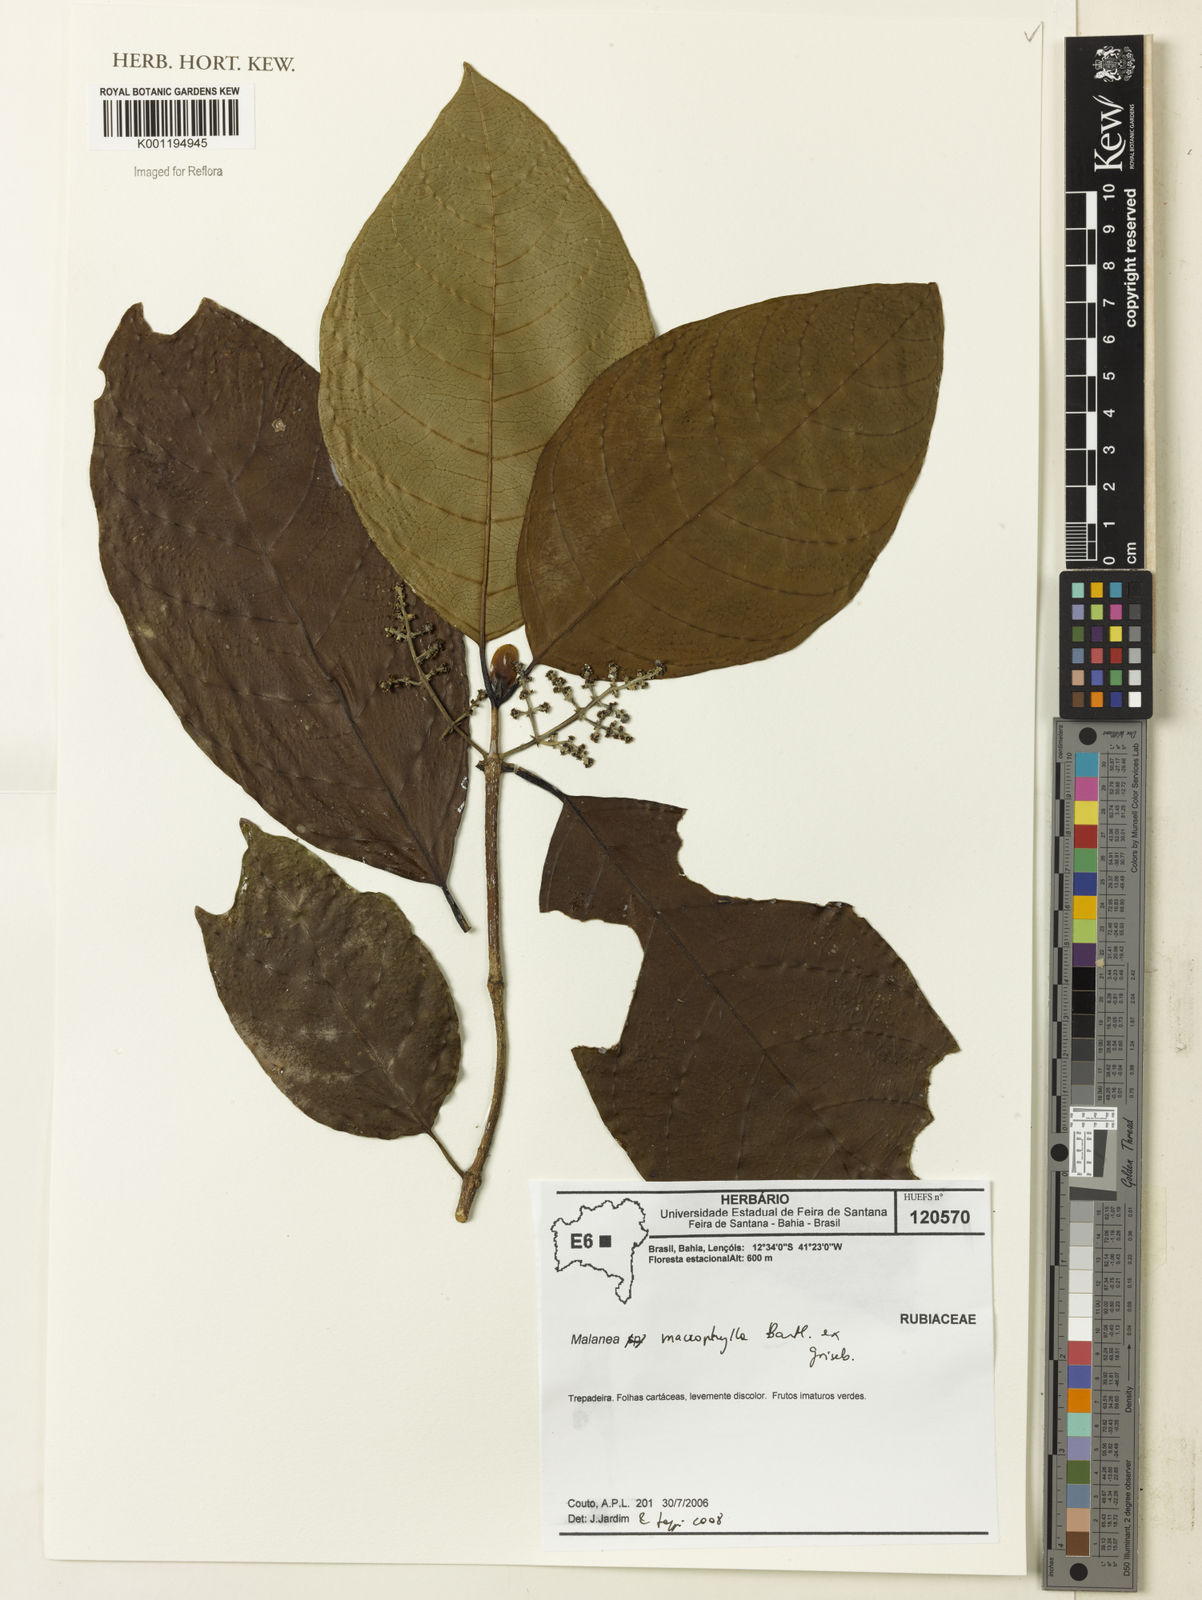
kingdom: Plantae
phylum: Tracheophyta
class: Magnoliopsida
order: Gentianales
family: Rubiaceae
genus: Malanea
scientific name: Malanea glabra
